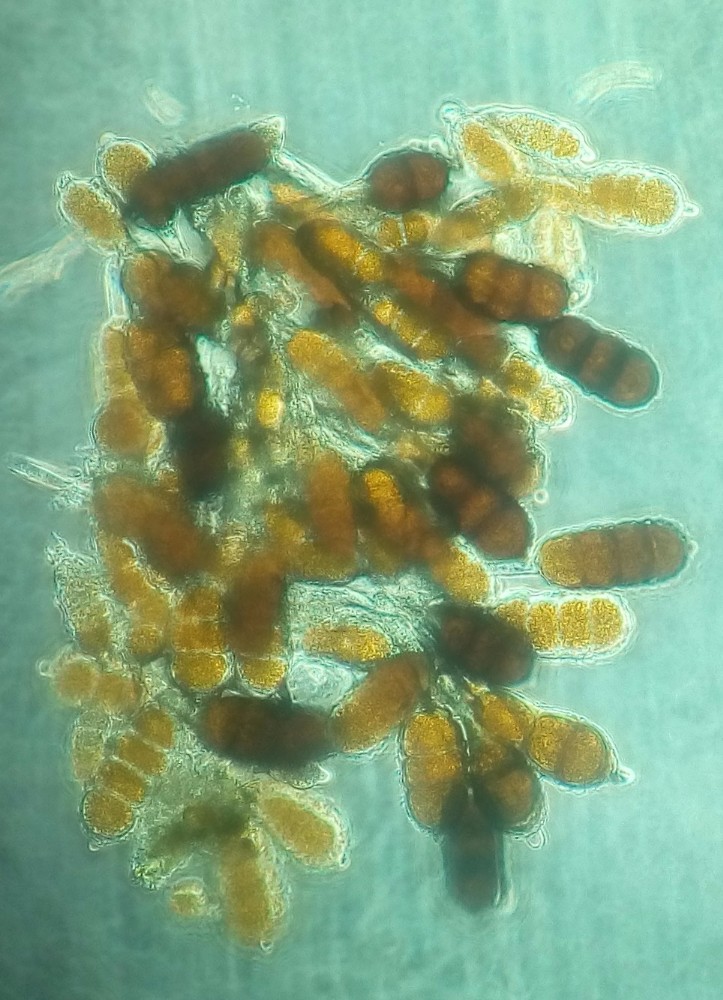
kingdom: Fungi
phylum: Basidiomycota
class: Pucciniomycetes
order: Pucciniales
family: Phragmidiaceae
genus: Phragmidium
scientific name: Phragmidium violaceum
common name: violet flercellerust
